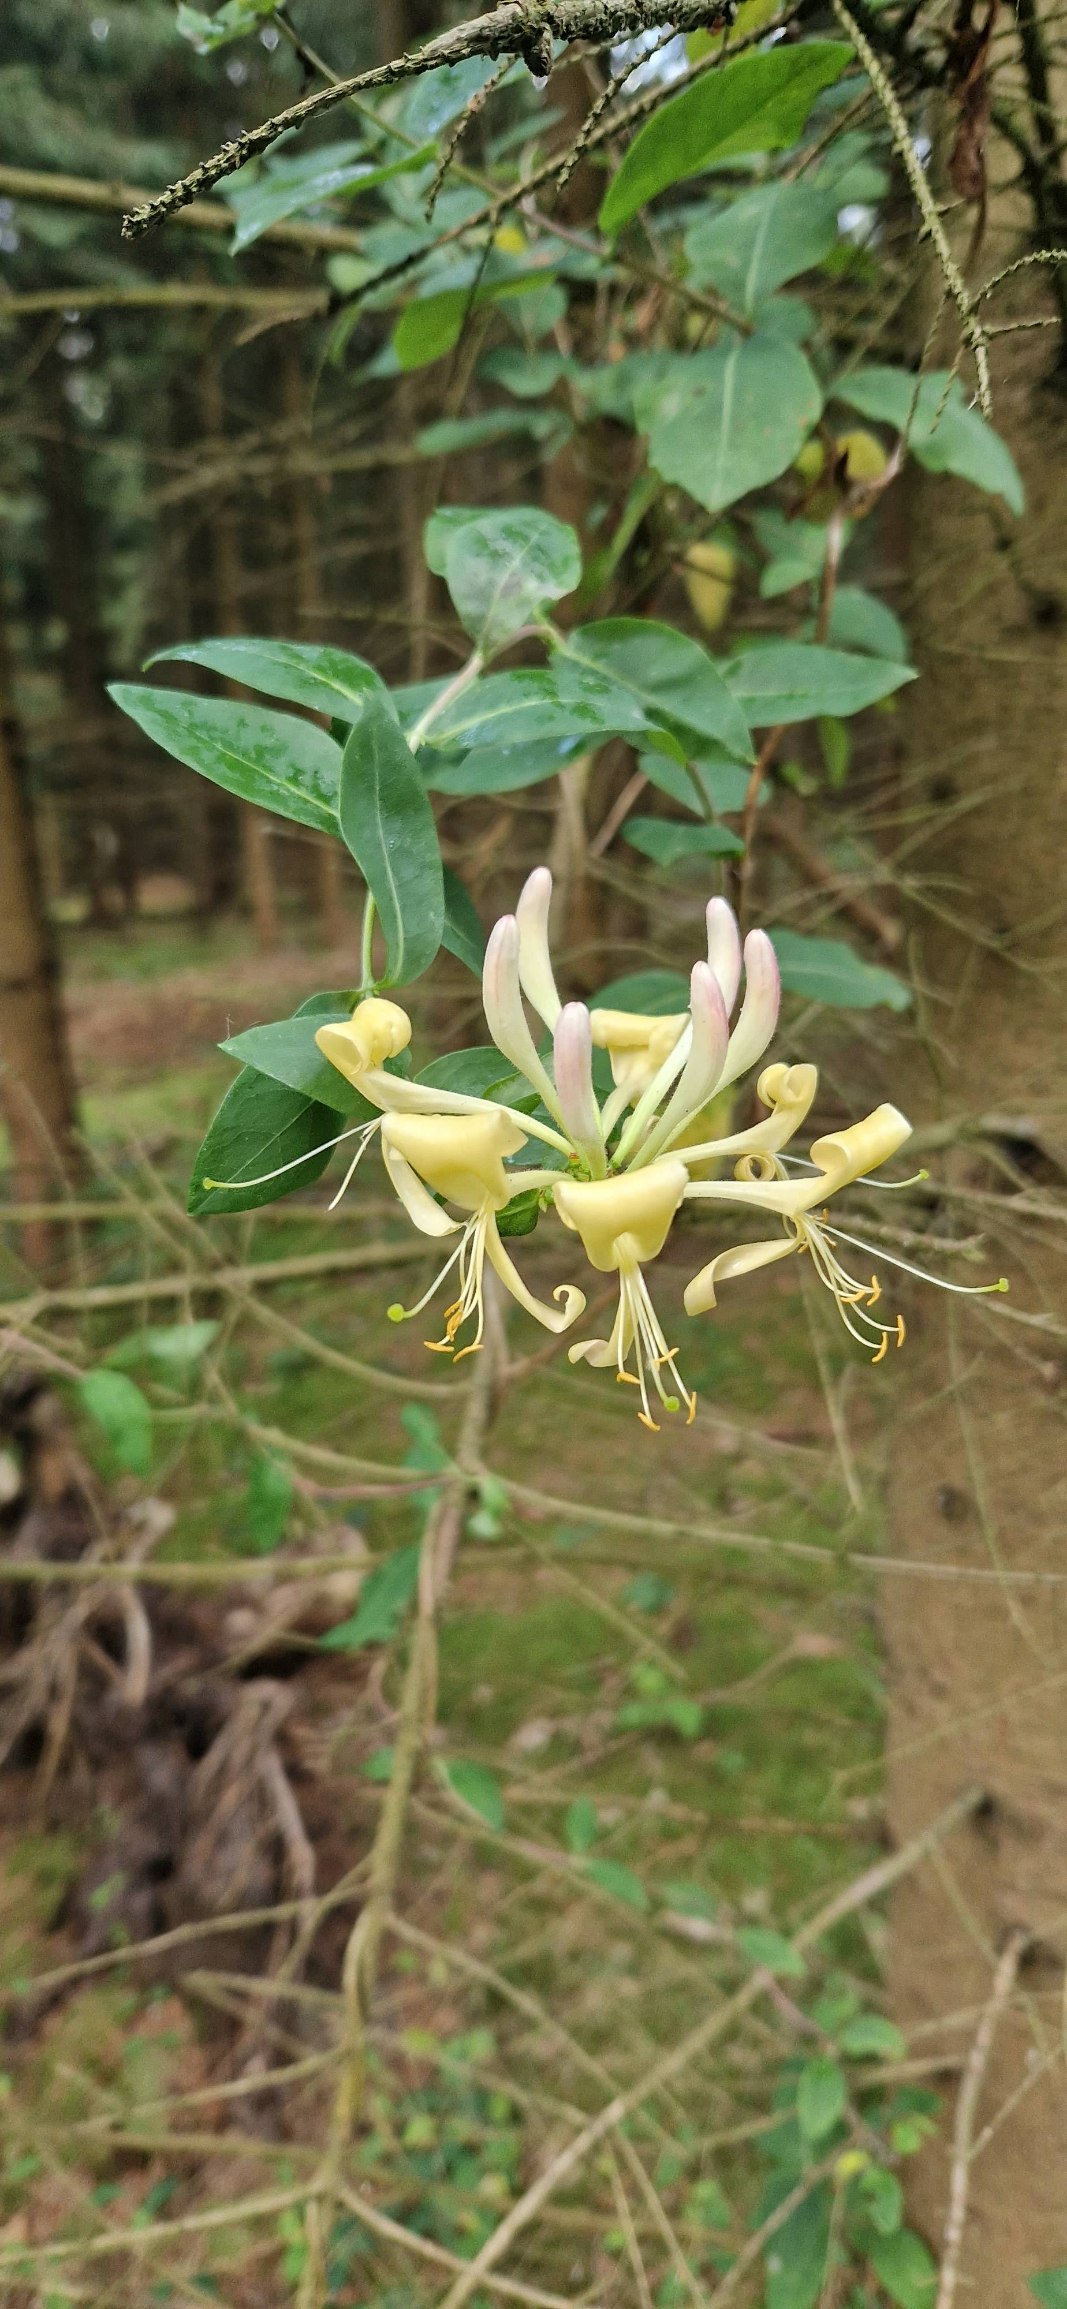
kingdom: Plantae
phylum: Tracheophyta
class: Magnoliopsida
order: Dipsacales
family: Caprifoliaceae
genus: Lonicera
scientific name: Lonicera periclymenum
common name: Almindelig gedeblad
